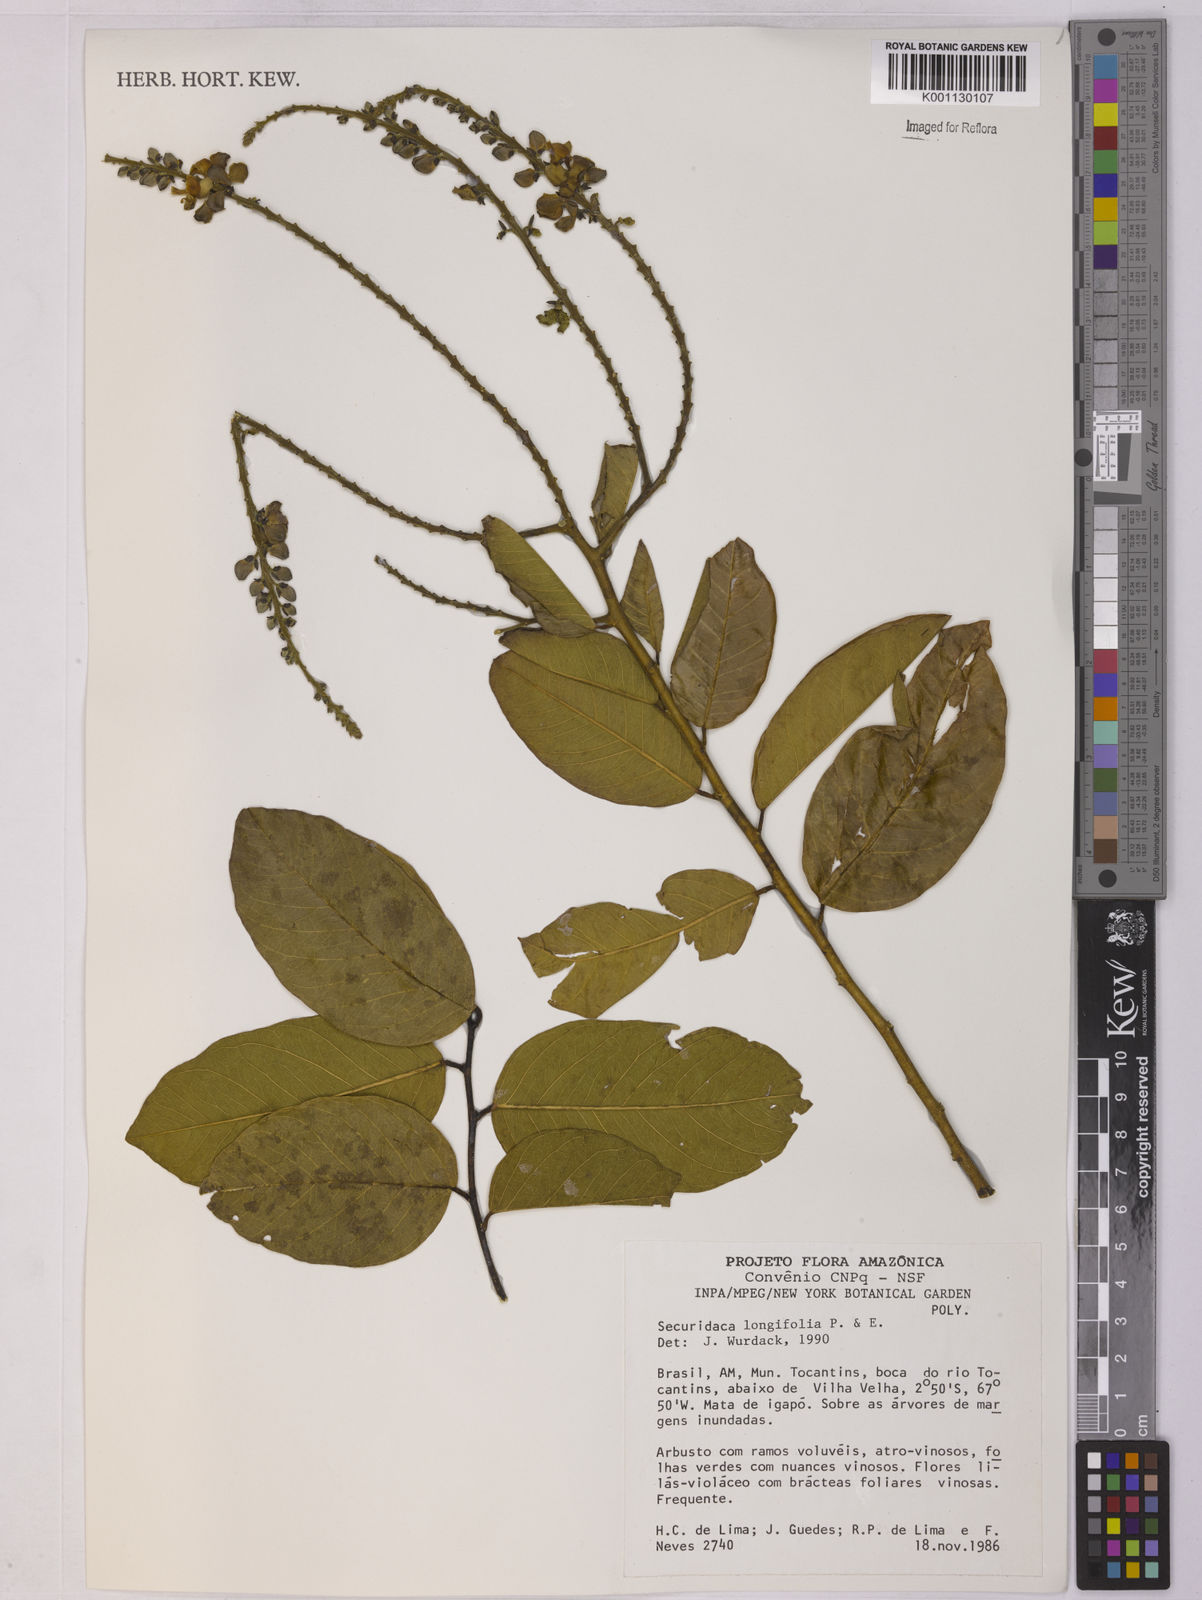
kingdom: Plantae
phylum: Tracheophyta
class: Magnoliopsida
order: Fabales
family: Polygalaceae
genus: Securidaca
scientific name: Securidaca longifolia
